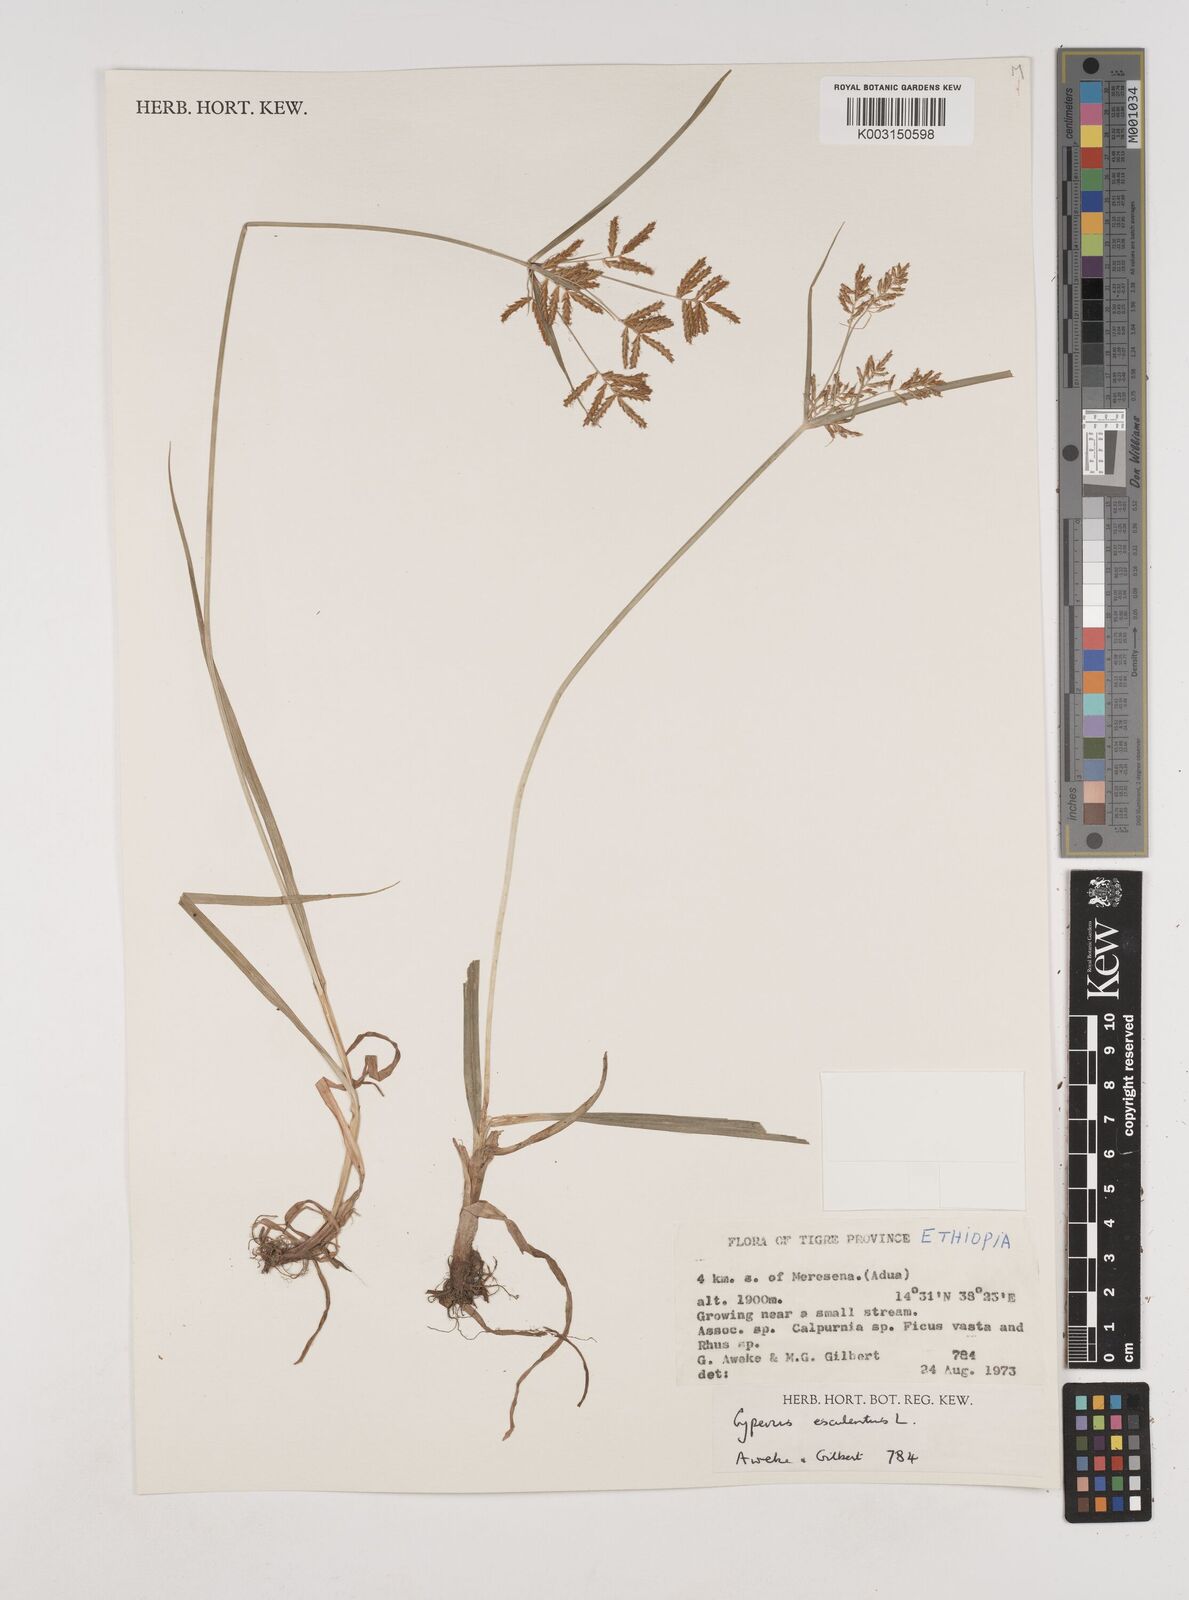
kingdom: Plantae
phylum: Tracheophyta
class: Liliopsida
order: Poales
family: Cyperaceae
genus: Cyperus
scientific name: Cyperus esculentus
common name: Yellow nutsedge
